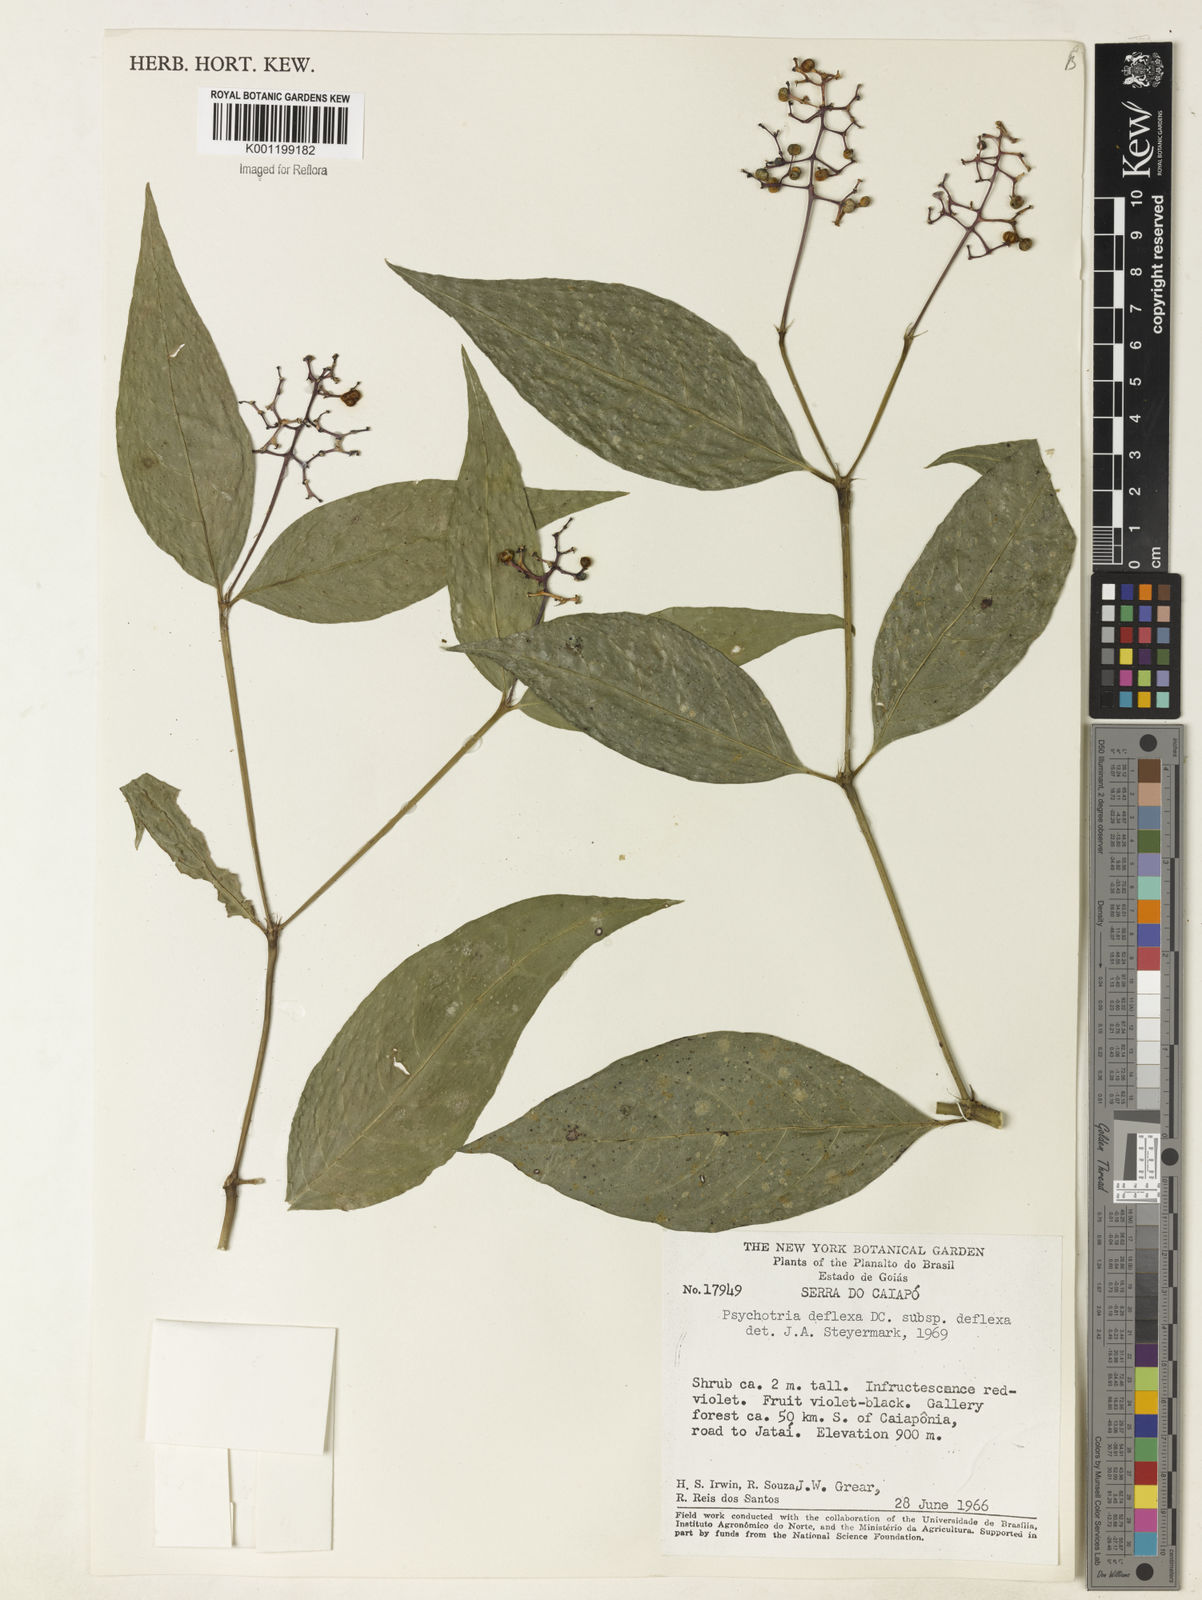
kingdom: Plantae
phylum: Tracheophyta
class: Magnoliopsida
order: Gentianales
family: Rubiaceae
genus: Palicourea
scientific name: Palicourea deflexa
